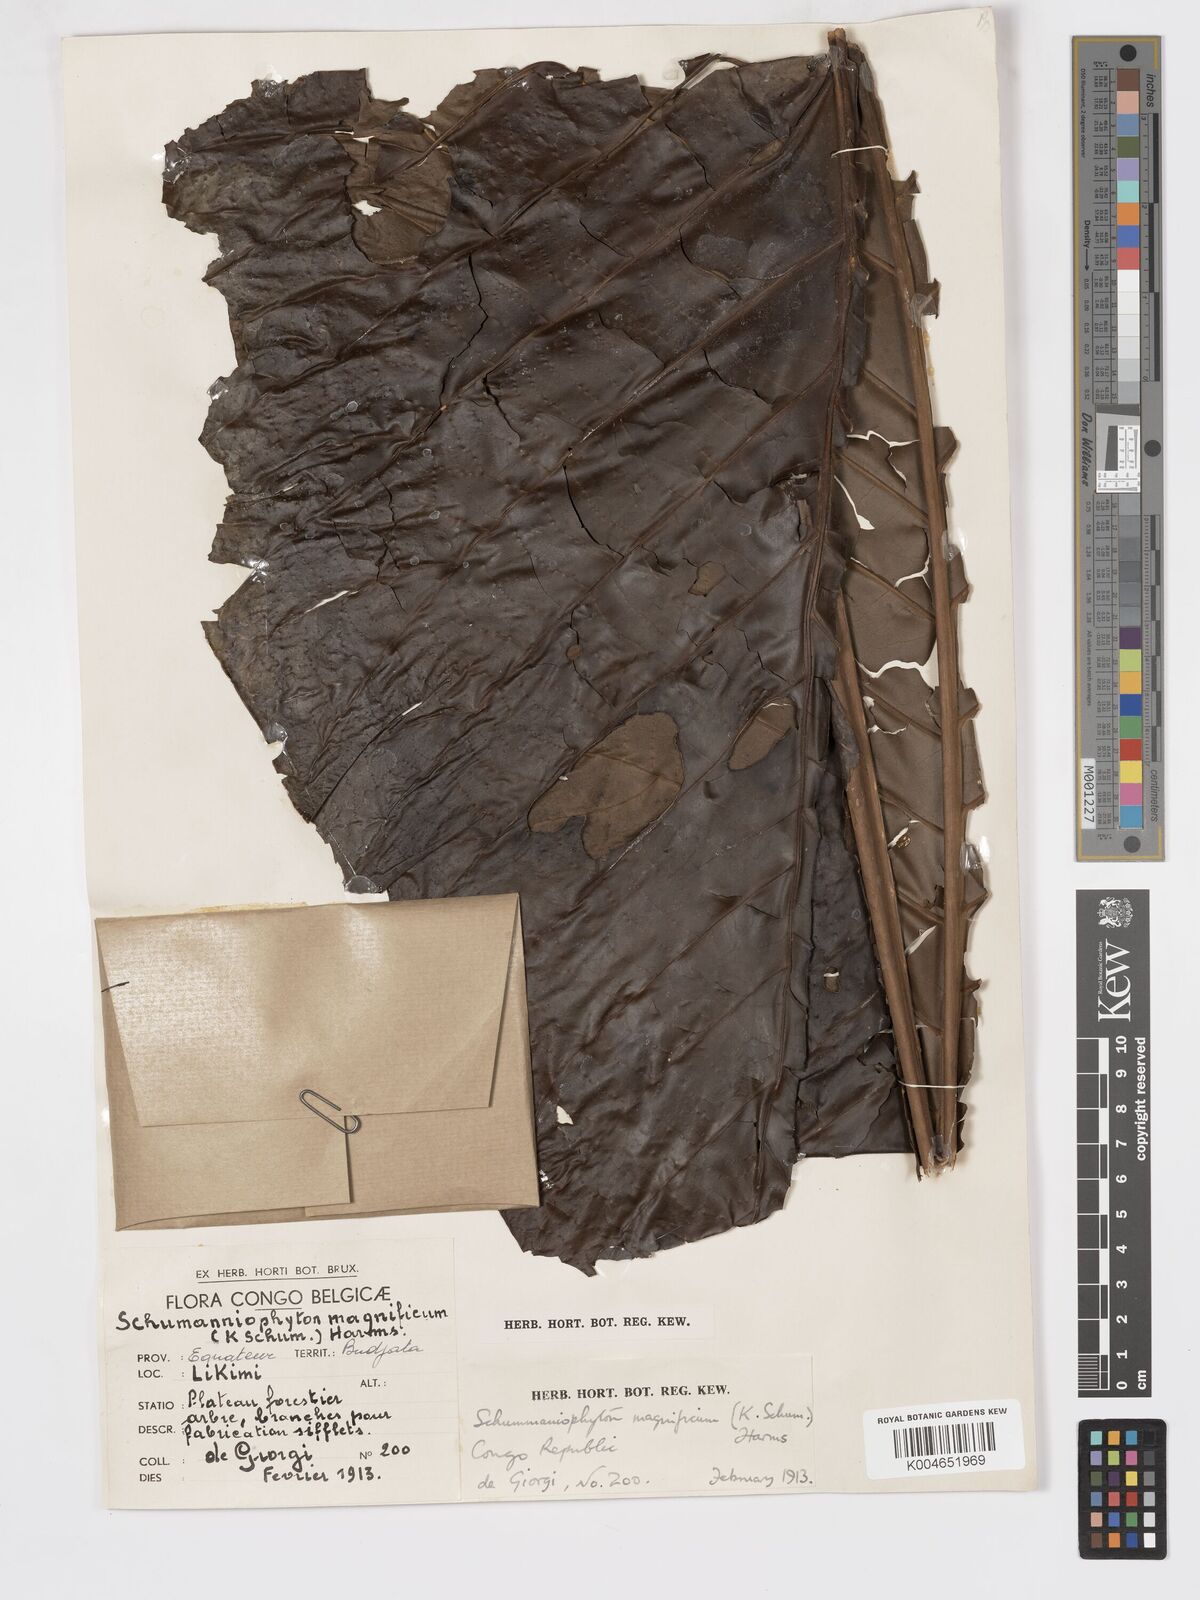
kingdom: Plantae
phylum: Tracheophyta
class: Magnoliopsida
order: Gentianales
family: Rubiaceae
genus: Schumanniophyton
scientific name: Schumanniophyton magnificum
